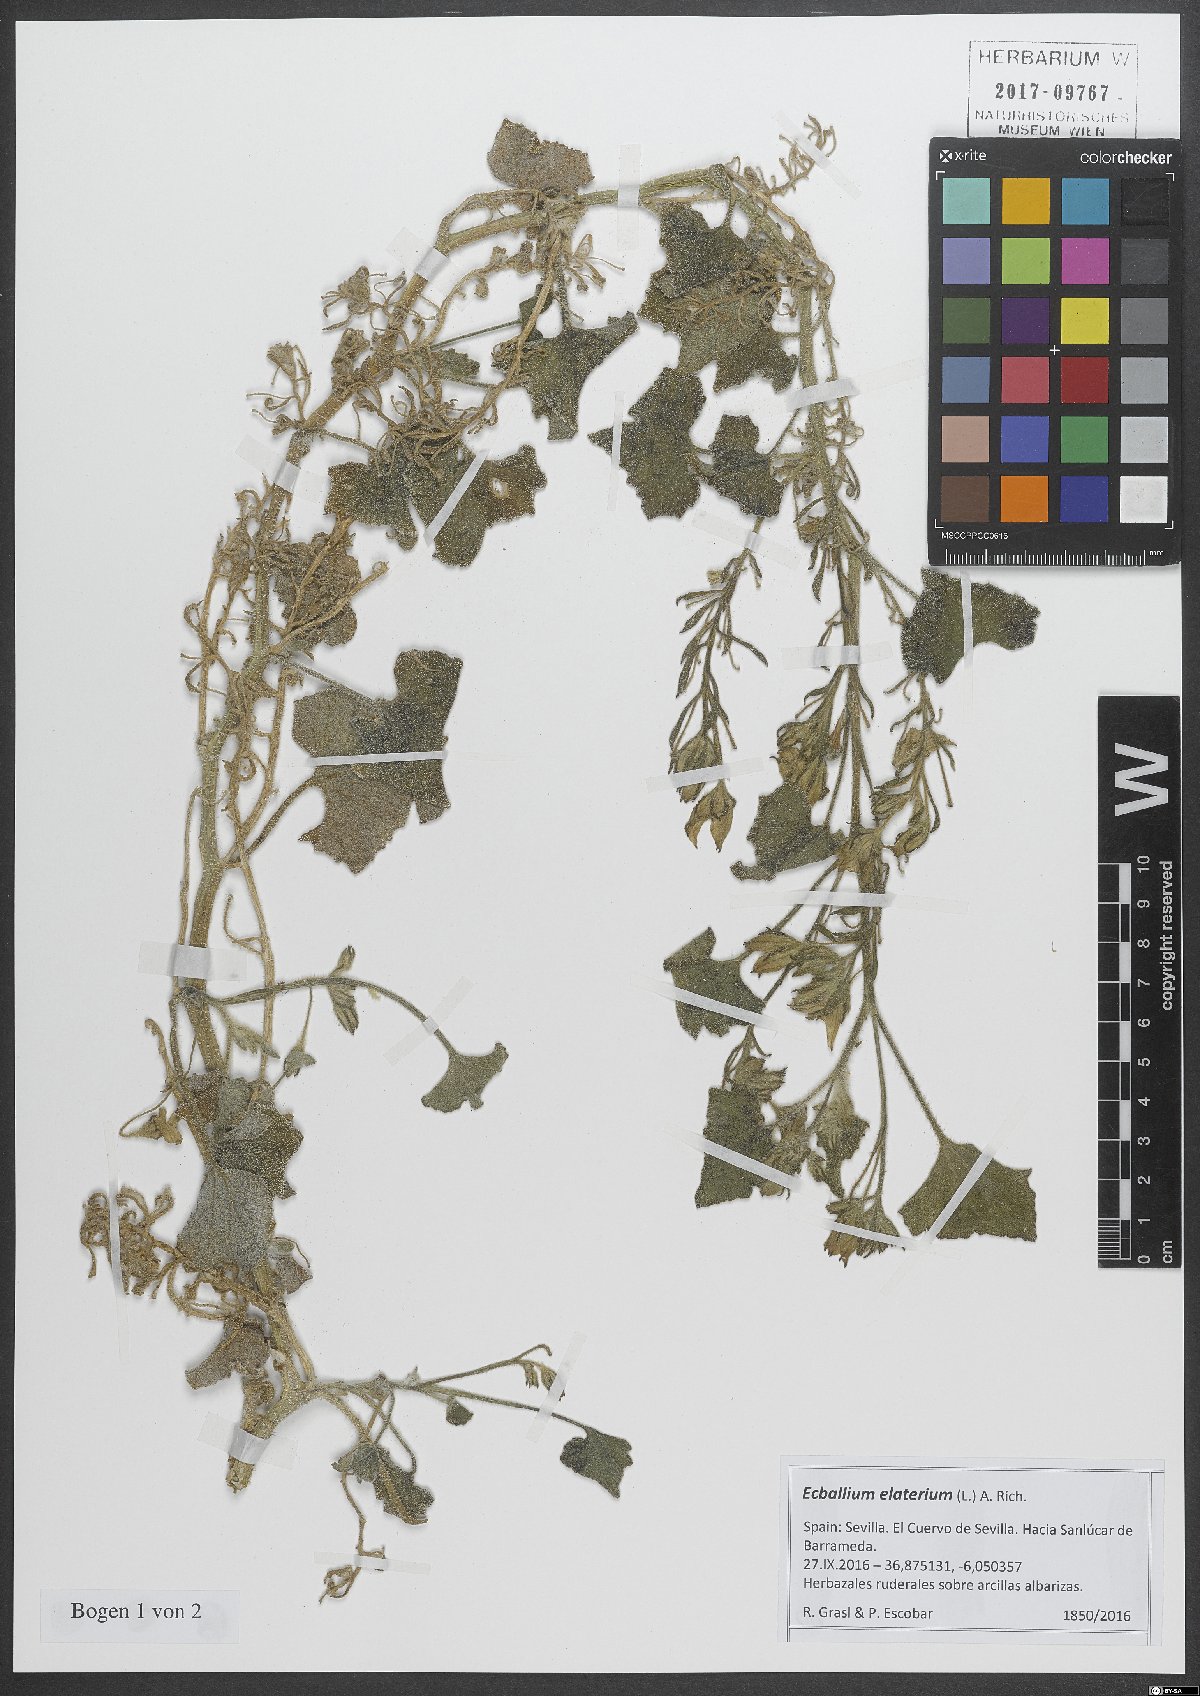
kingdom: Plantae
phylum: Tracheophyta
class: Magnoliopsida
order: Cucurbitales
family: Cucurbitaceae
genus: Ecballium
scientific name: Ecballium elaterium
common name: Squirting cucumber
